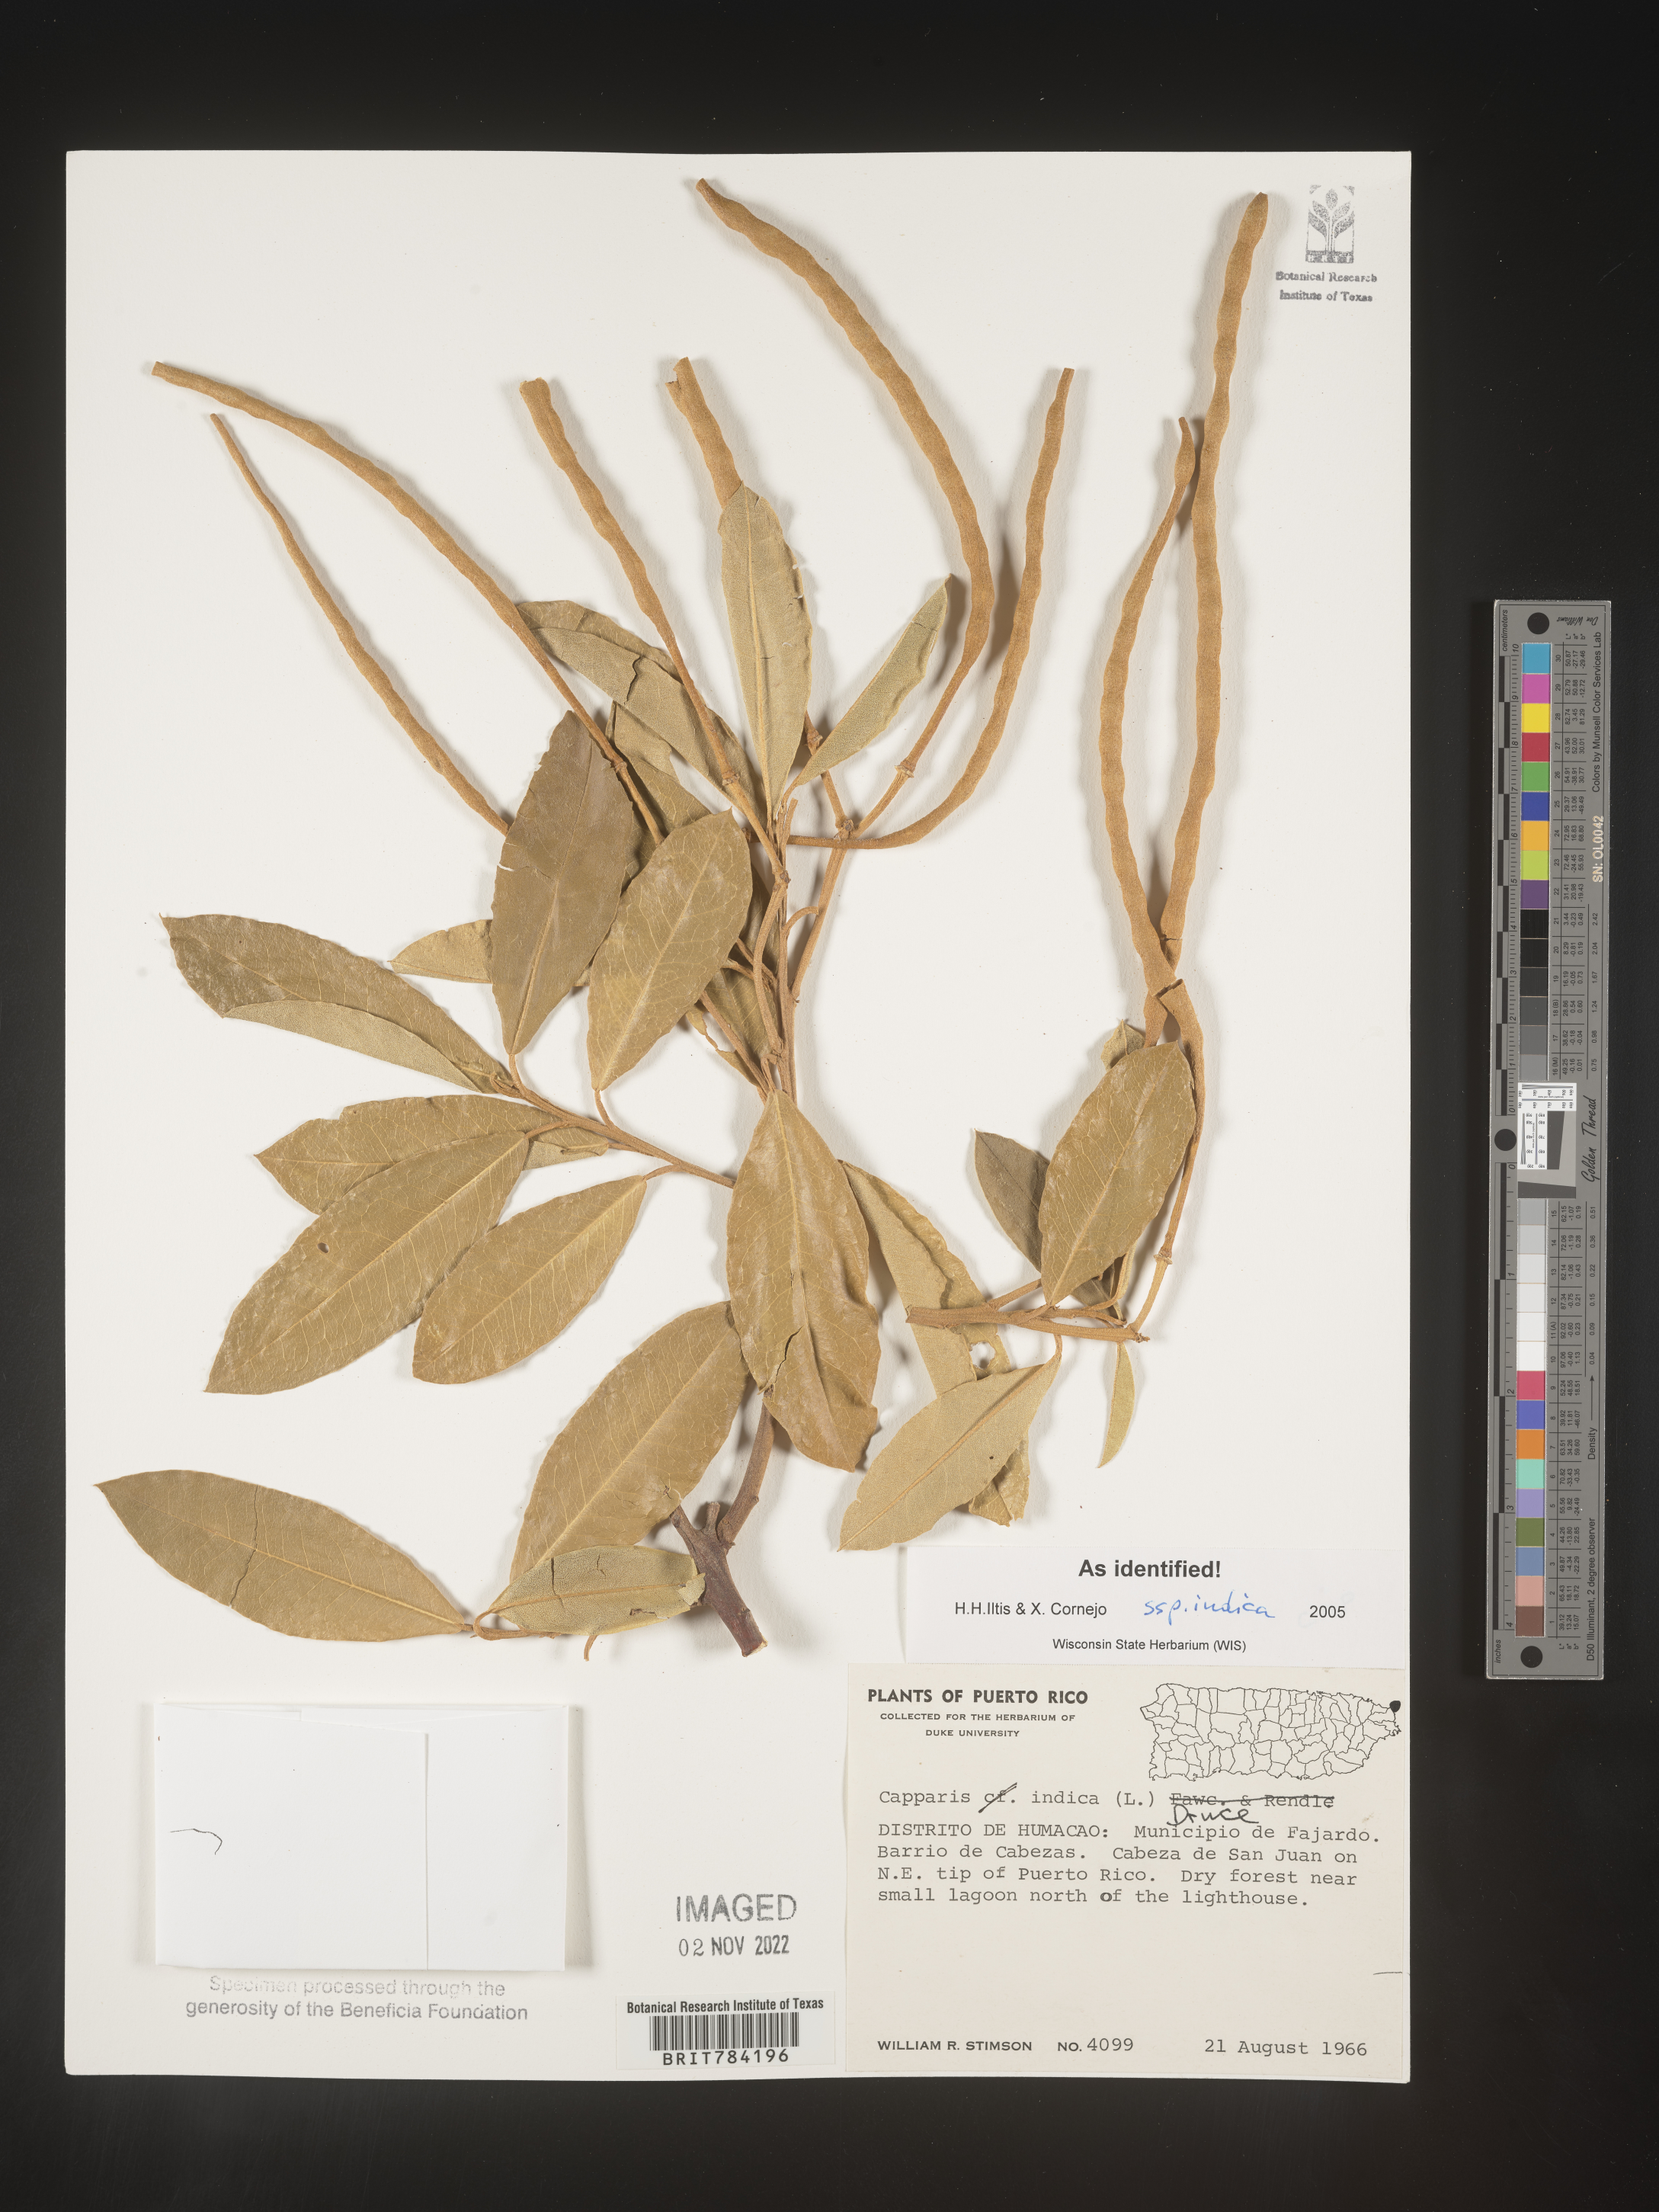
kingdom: Plantae
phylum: Tracheophyta
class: Magnoliopsida
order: Brassicales
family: Capparaceae
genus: Capparis
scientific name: Capparis
